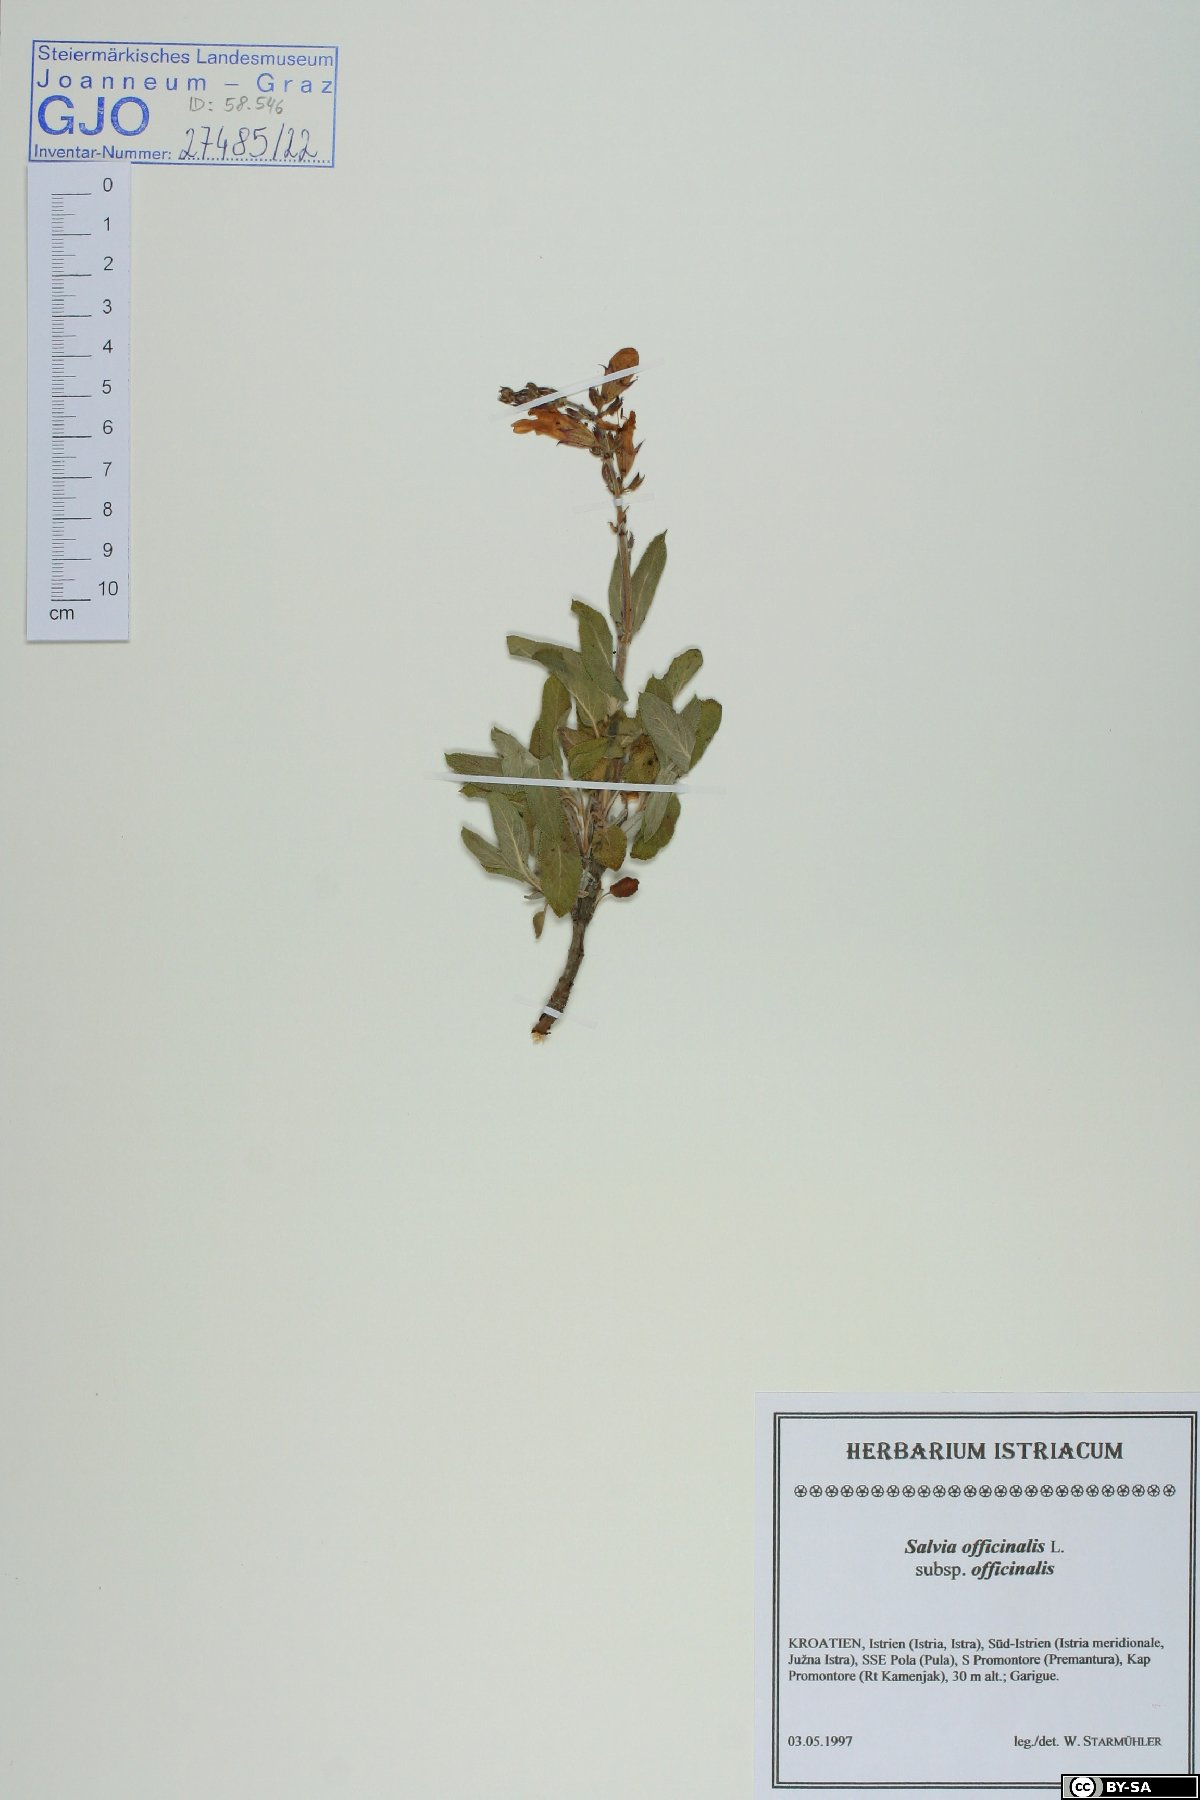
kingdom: Plantae
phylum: Tracheophyta
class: Magnoliopsida
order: Lamiales
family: Lamiaceae
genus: Salvia
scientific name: Salvia officinalis
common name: Sage
